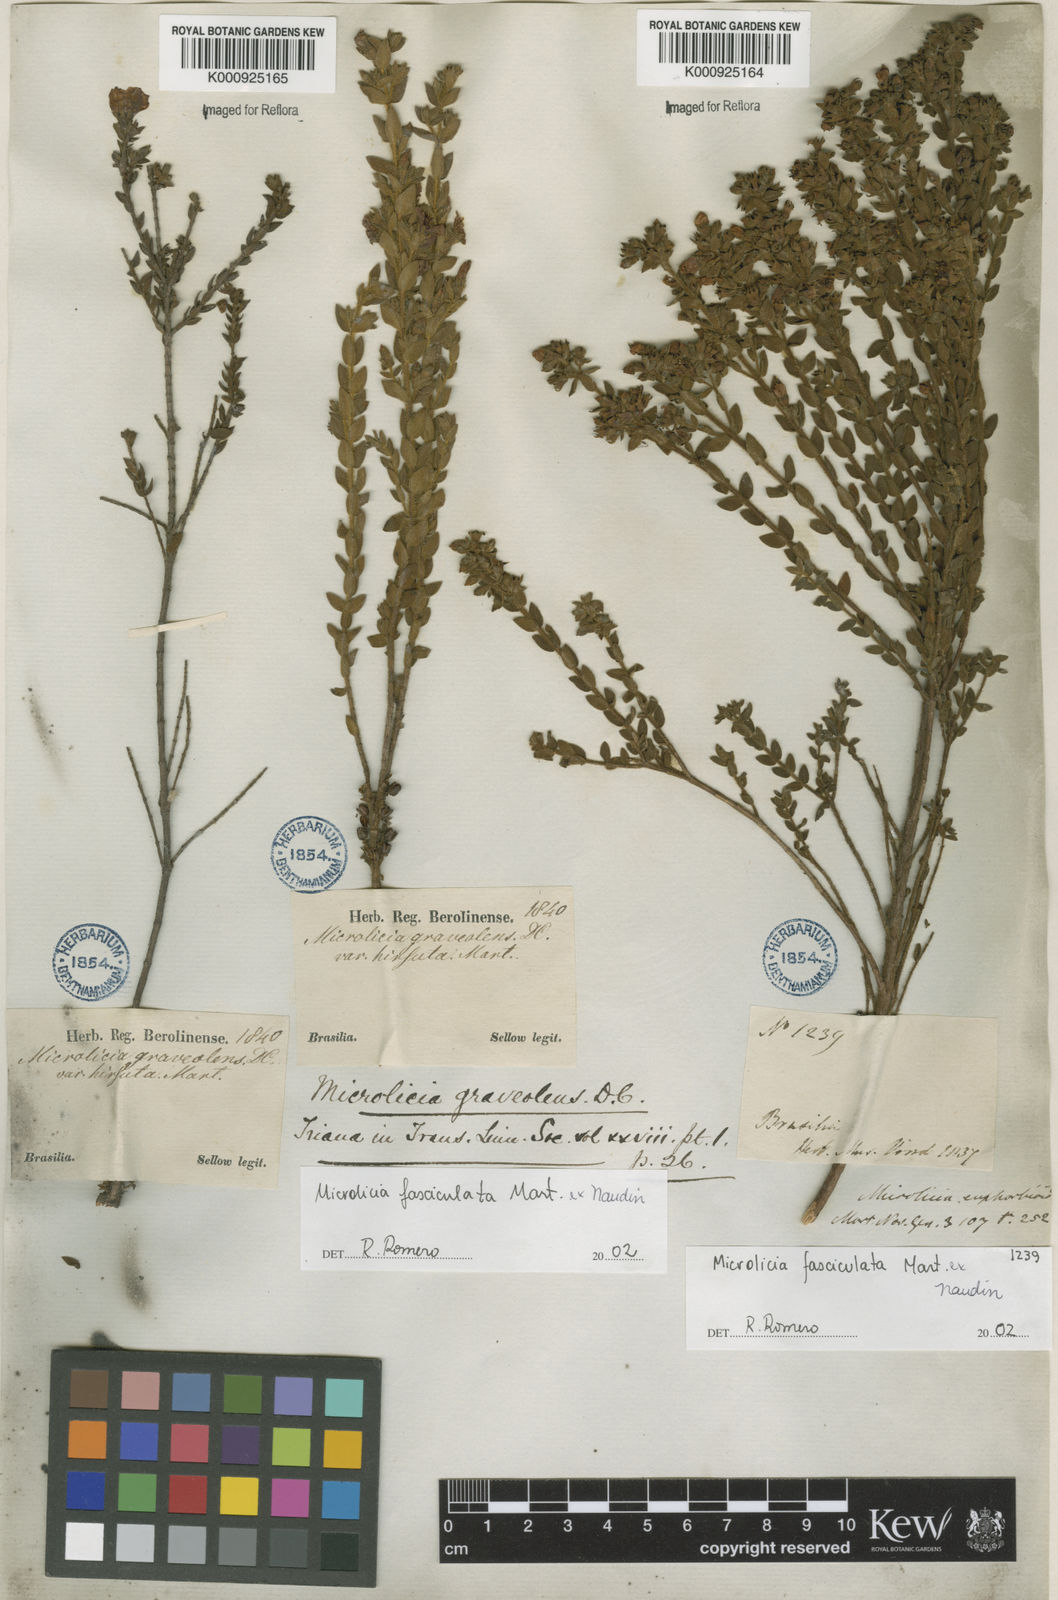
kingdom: Plantae
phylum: Tracheophyta
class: Magnoliopsida
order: Myrtales
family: Melastomataceae
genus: Microlicia
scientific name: Microlicia fasciculata
